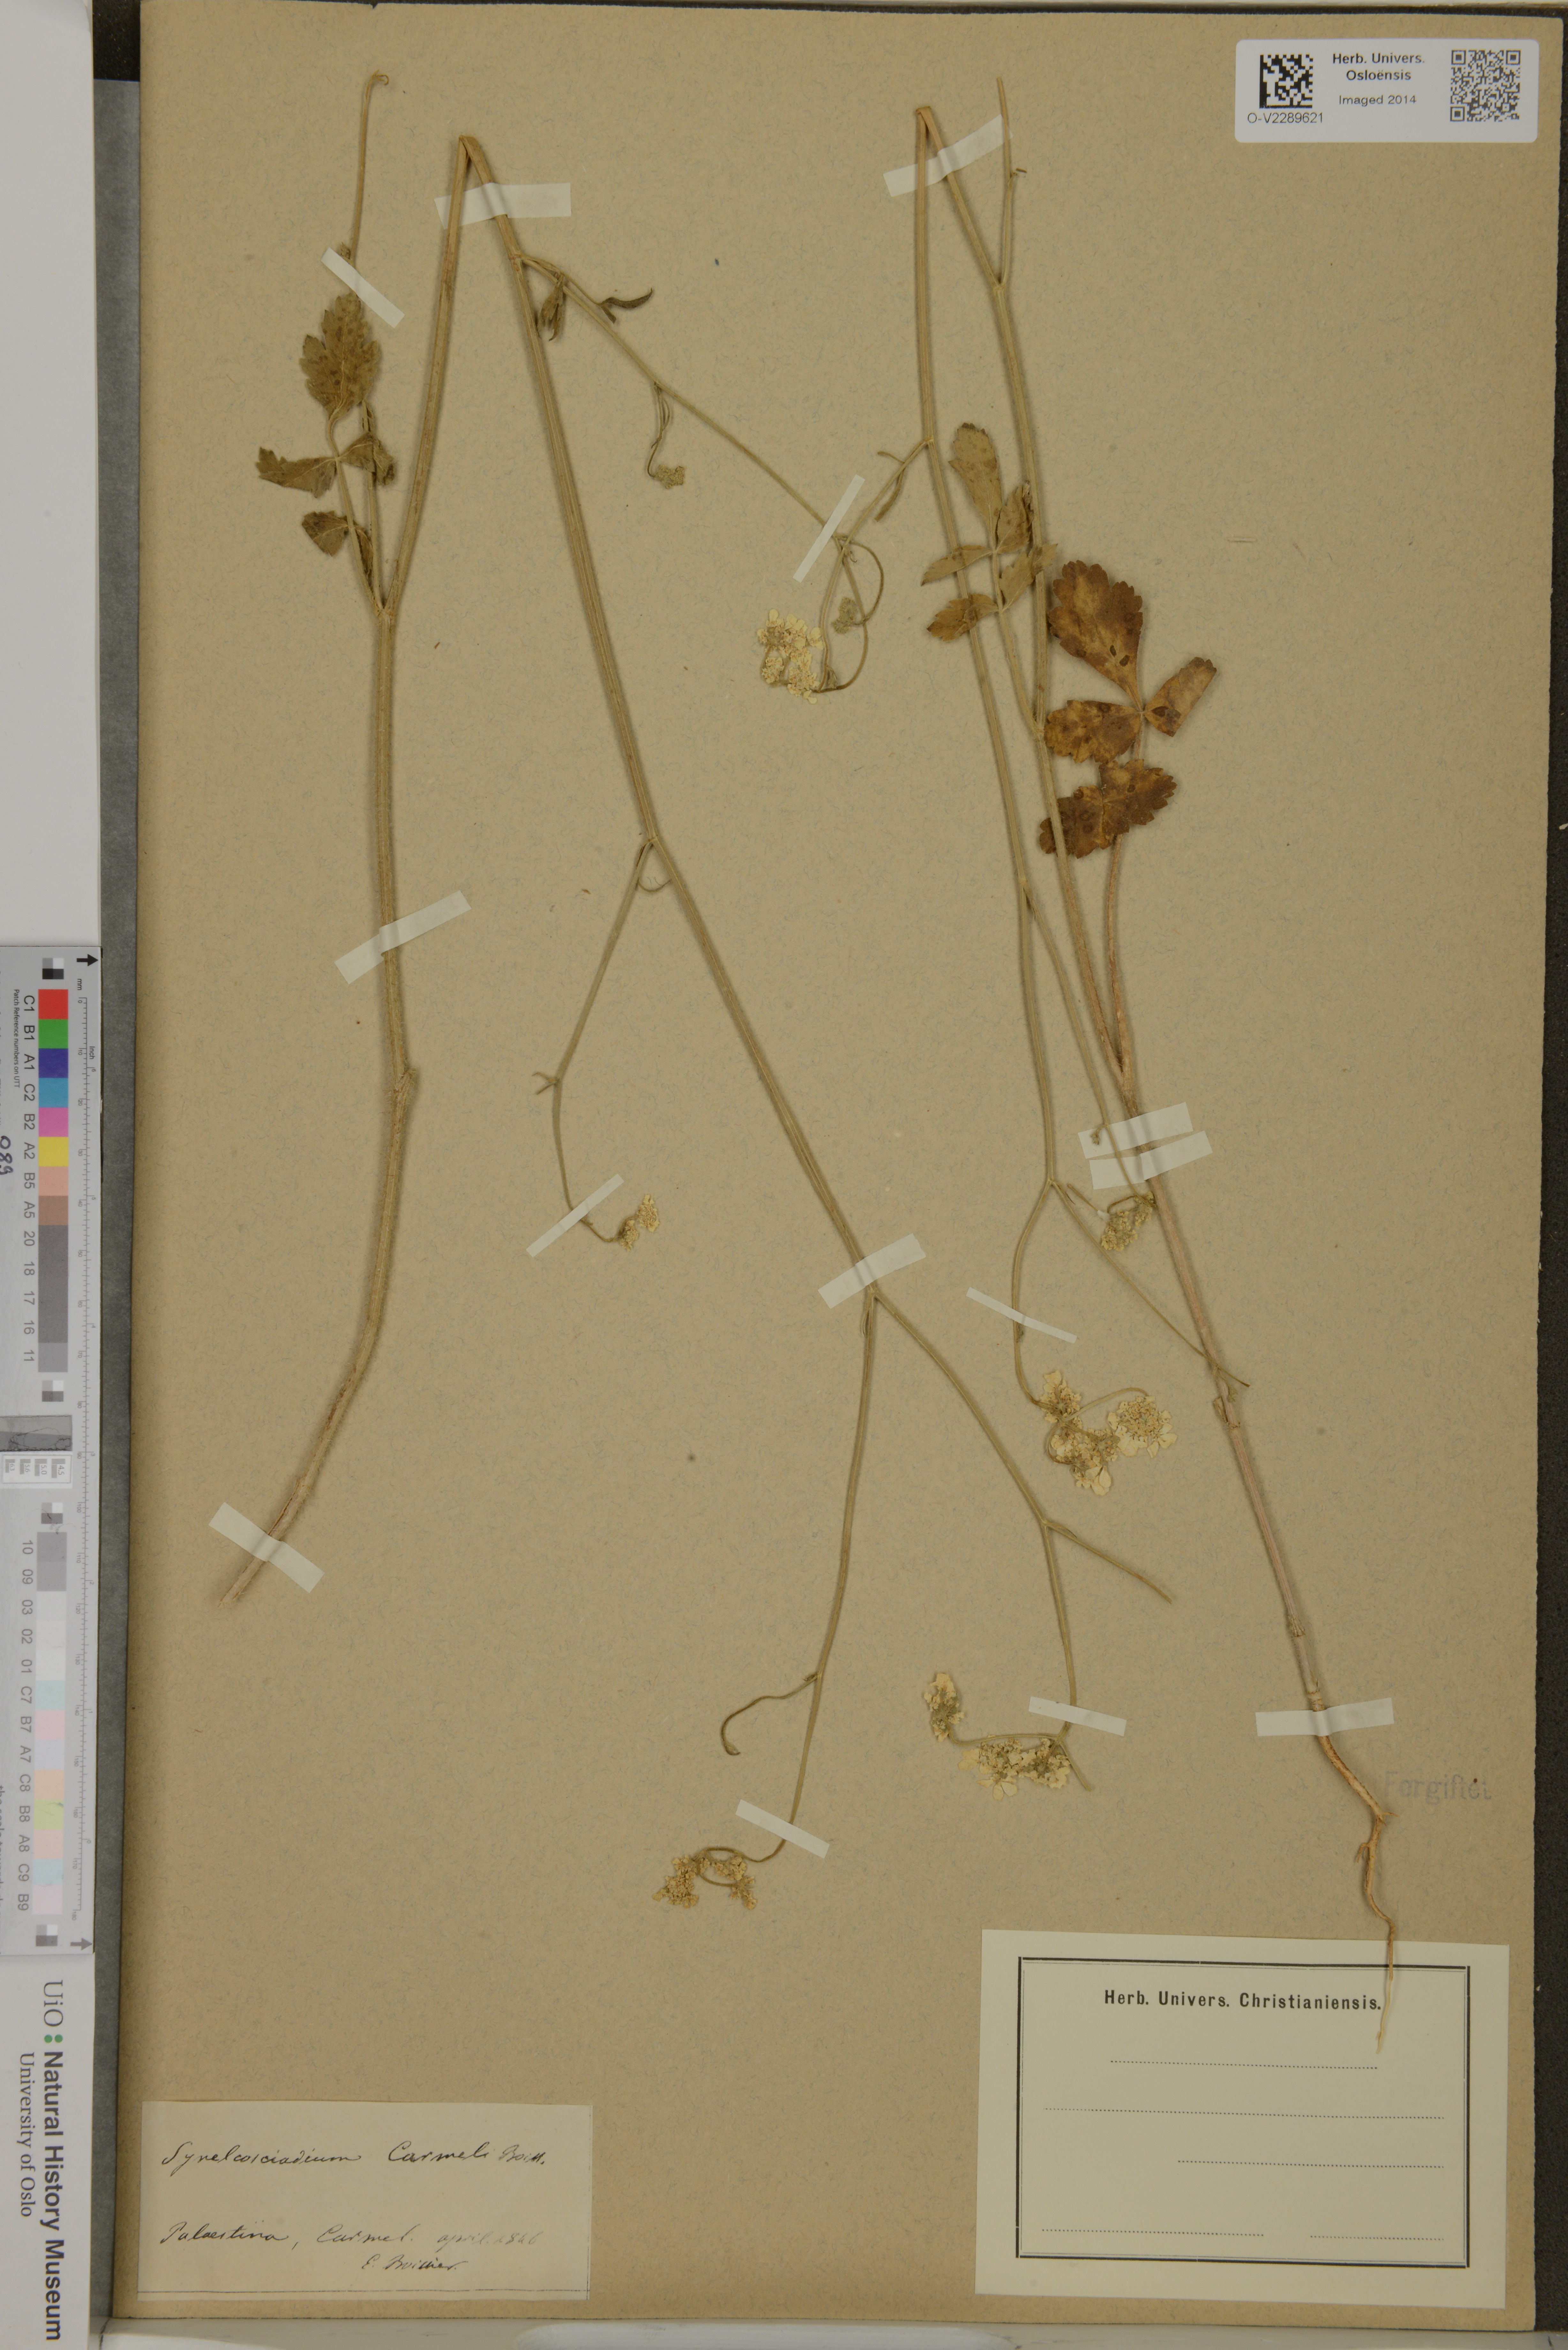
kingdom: Plantae
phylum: Tracheophyta
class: Magnoliopsida
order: Apiales
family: Apiaceae
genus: Synelcosciadium
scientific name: Synelcosciadium carmeli
